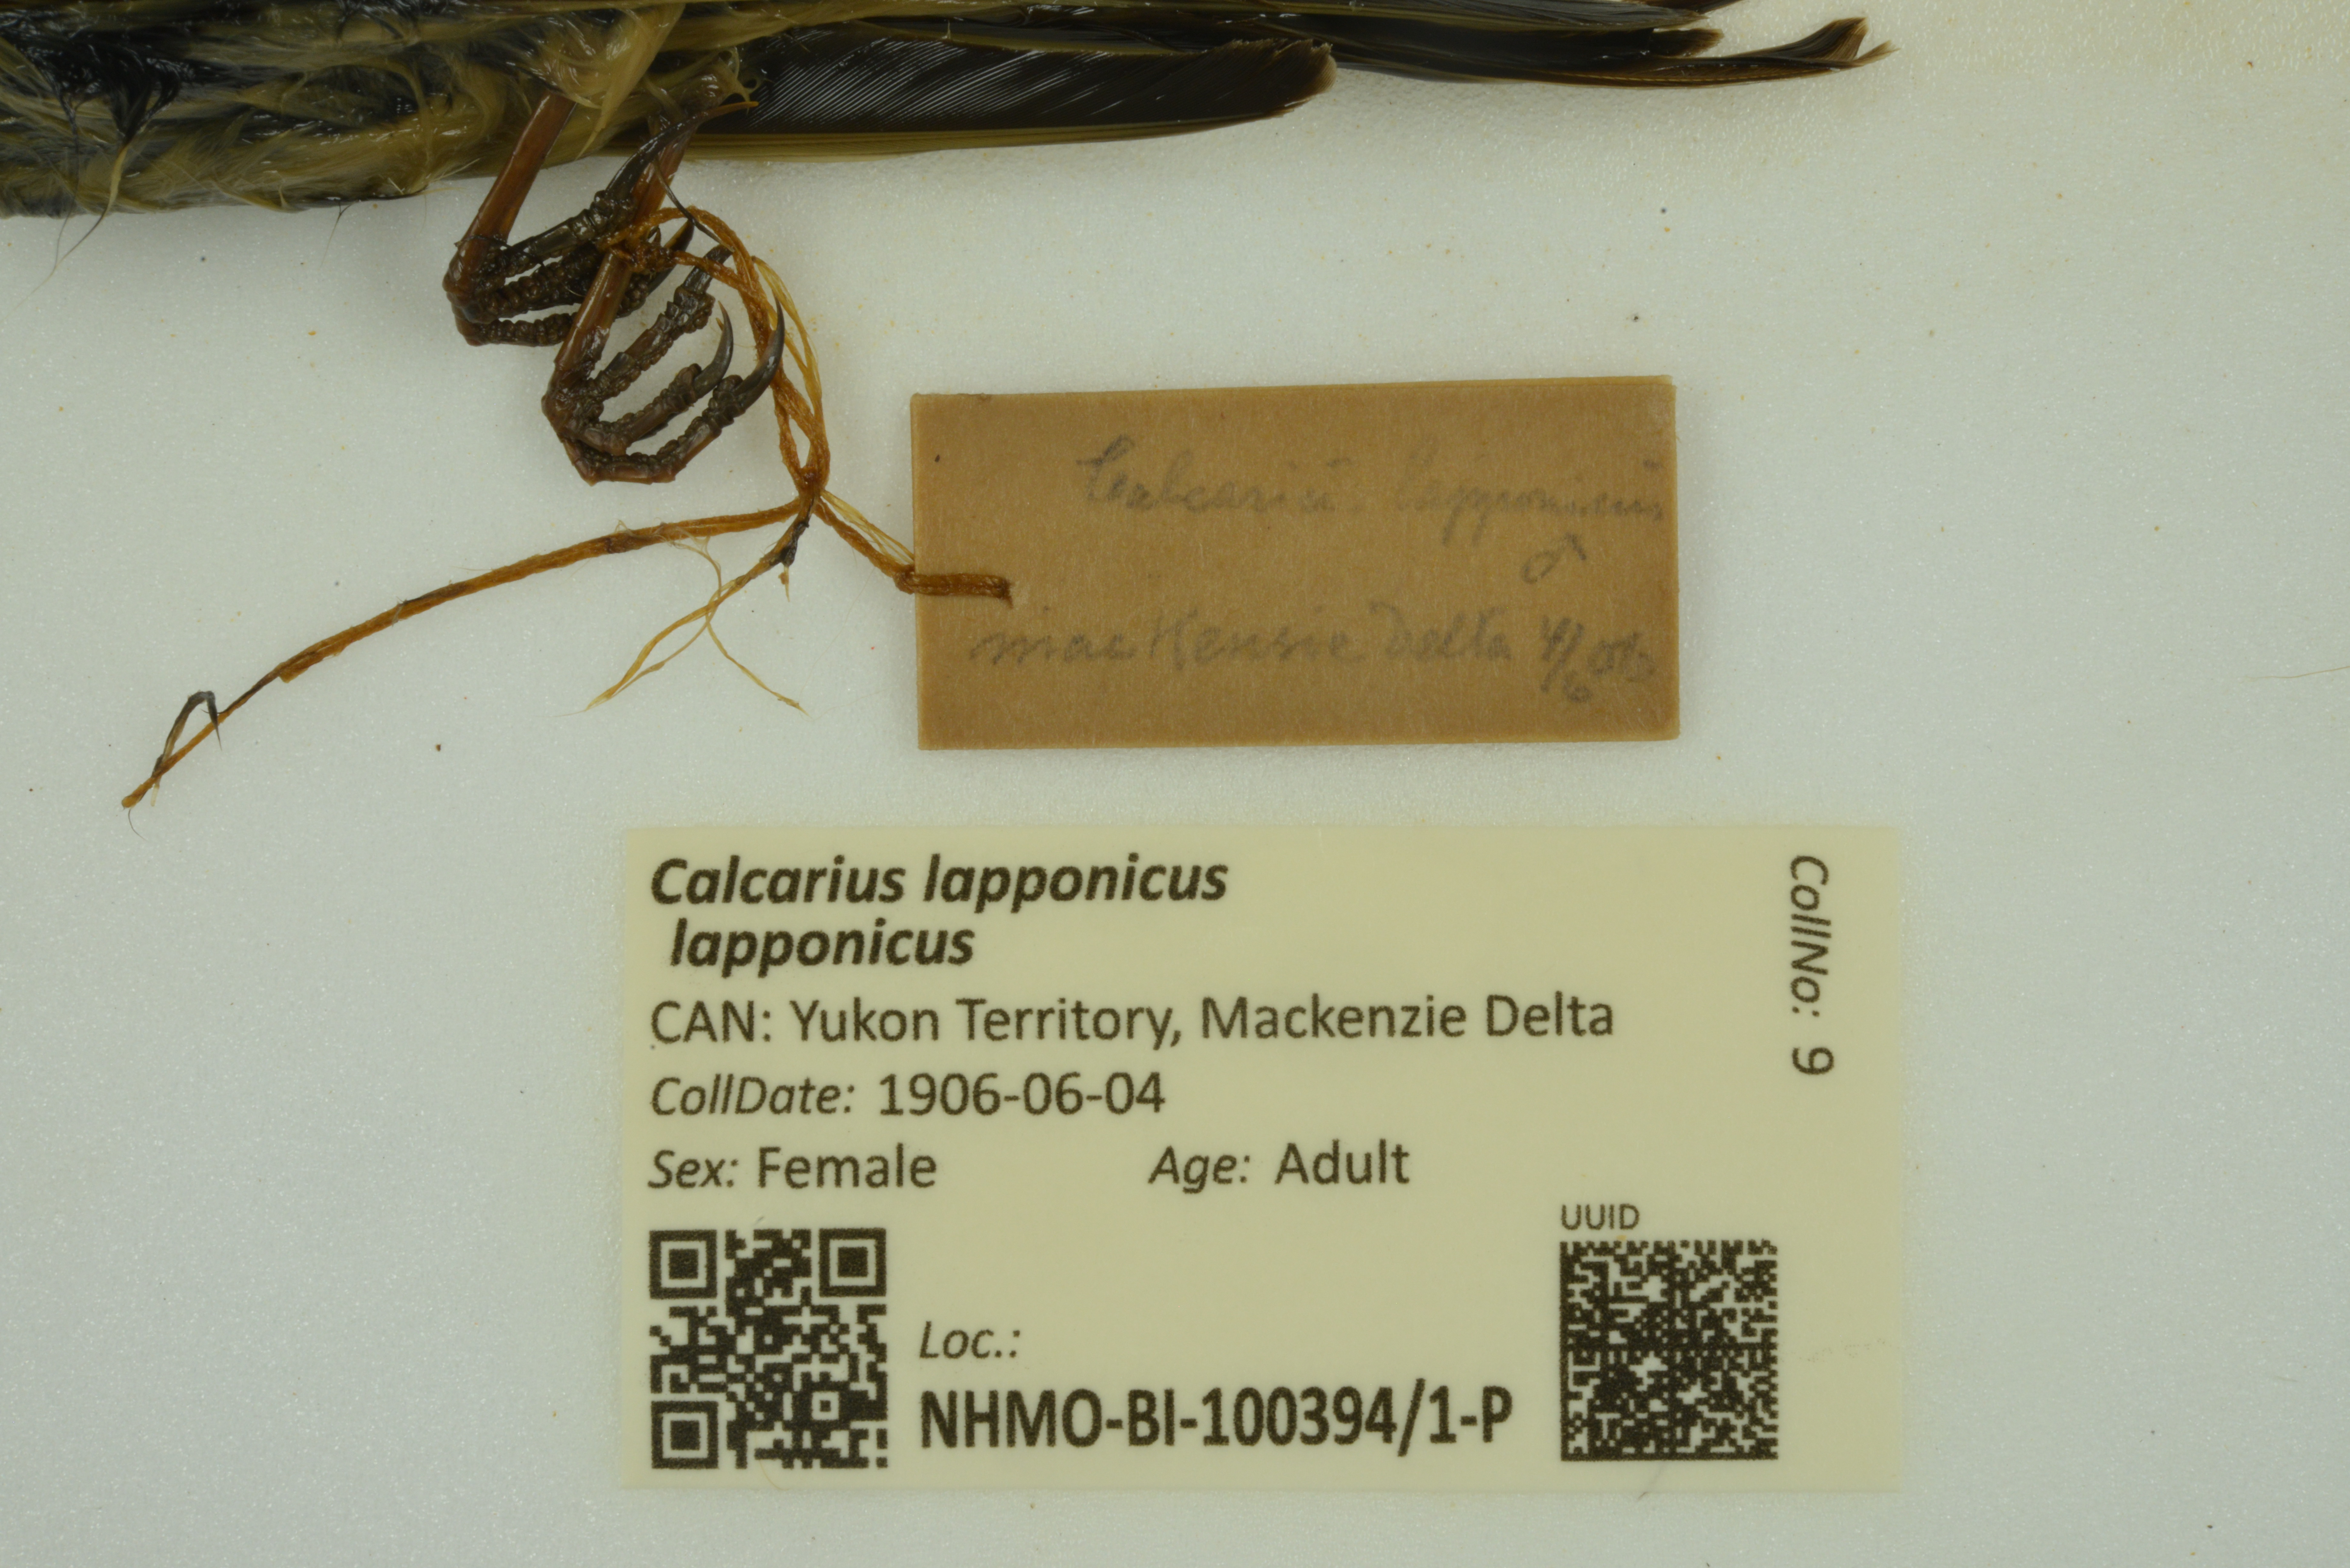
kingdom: Animalia
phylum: Chordata
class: Aves
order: Passeriformes
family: Calcariidae
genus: Calcarius
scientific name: Calcarius lapponicus
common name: Lapland longspur
